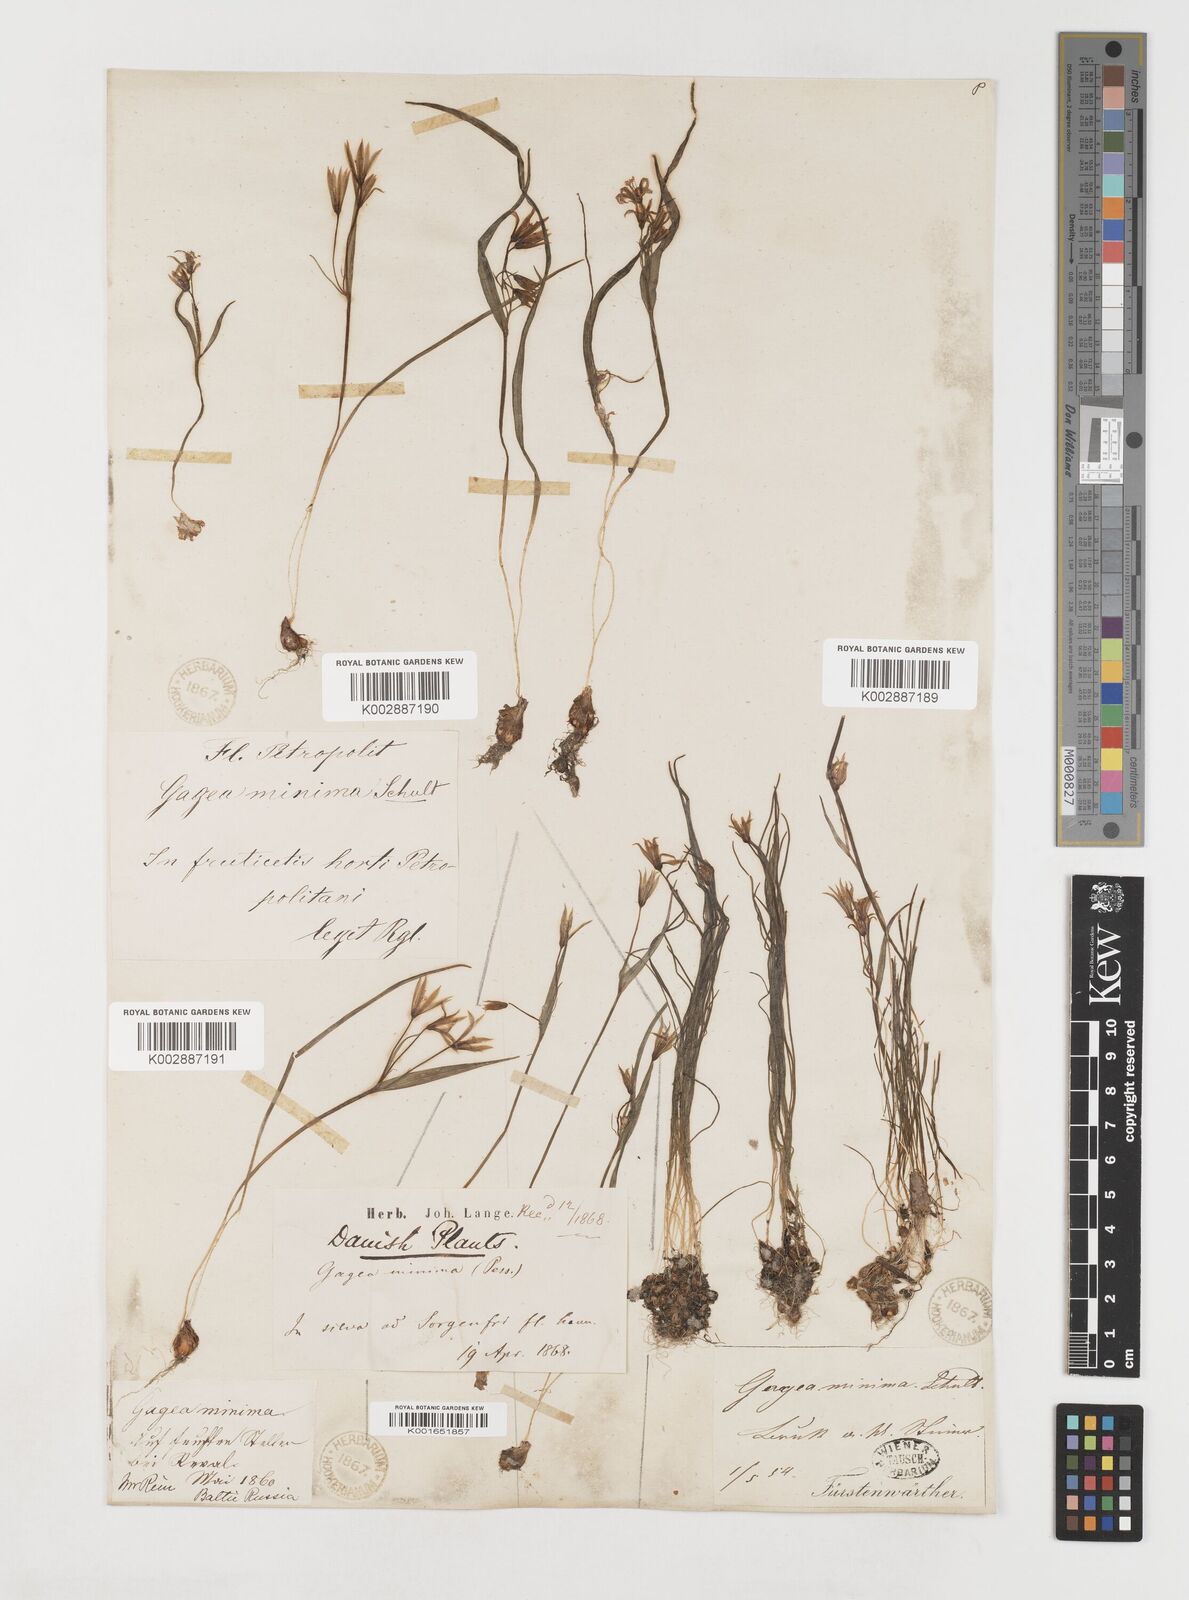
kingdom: Plantae
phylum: Tracheophyta
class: Liliopsida
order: Liliales
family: Liliaceae
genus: Gagea
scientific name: Gagea minima
